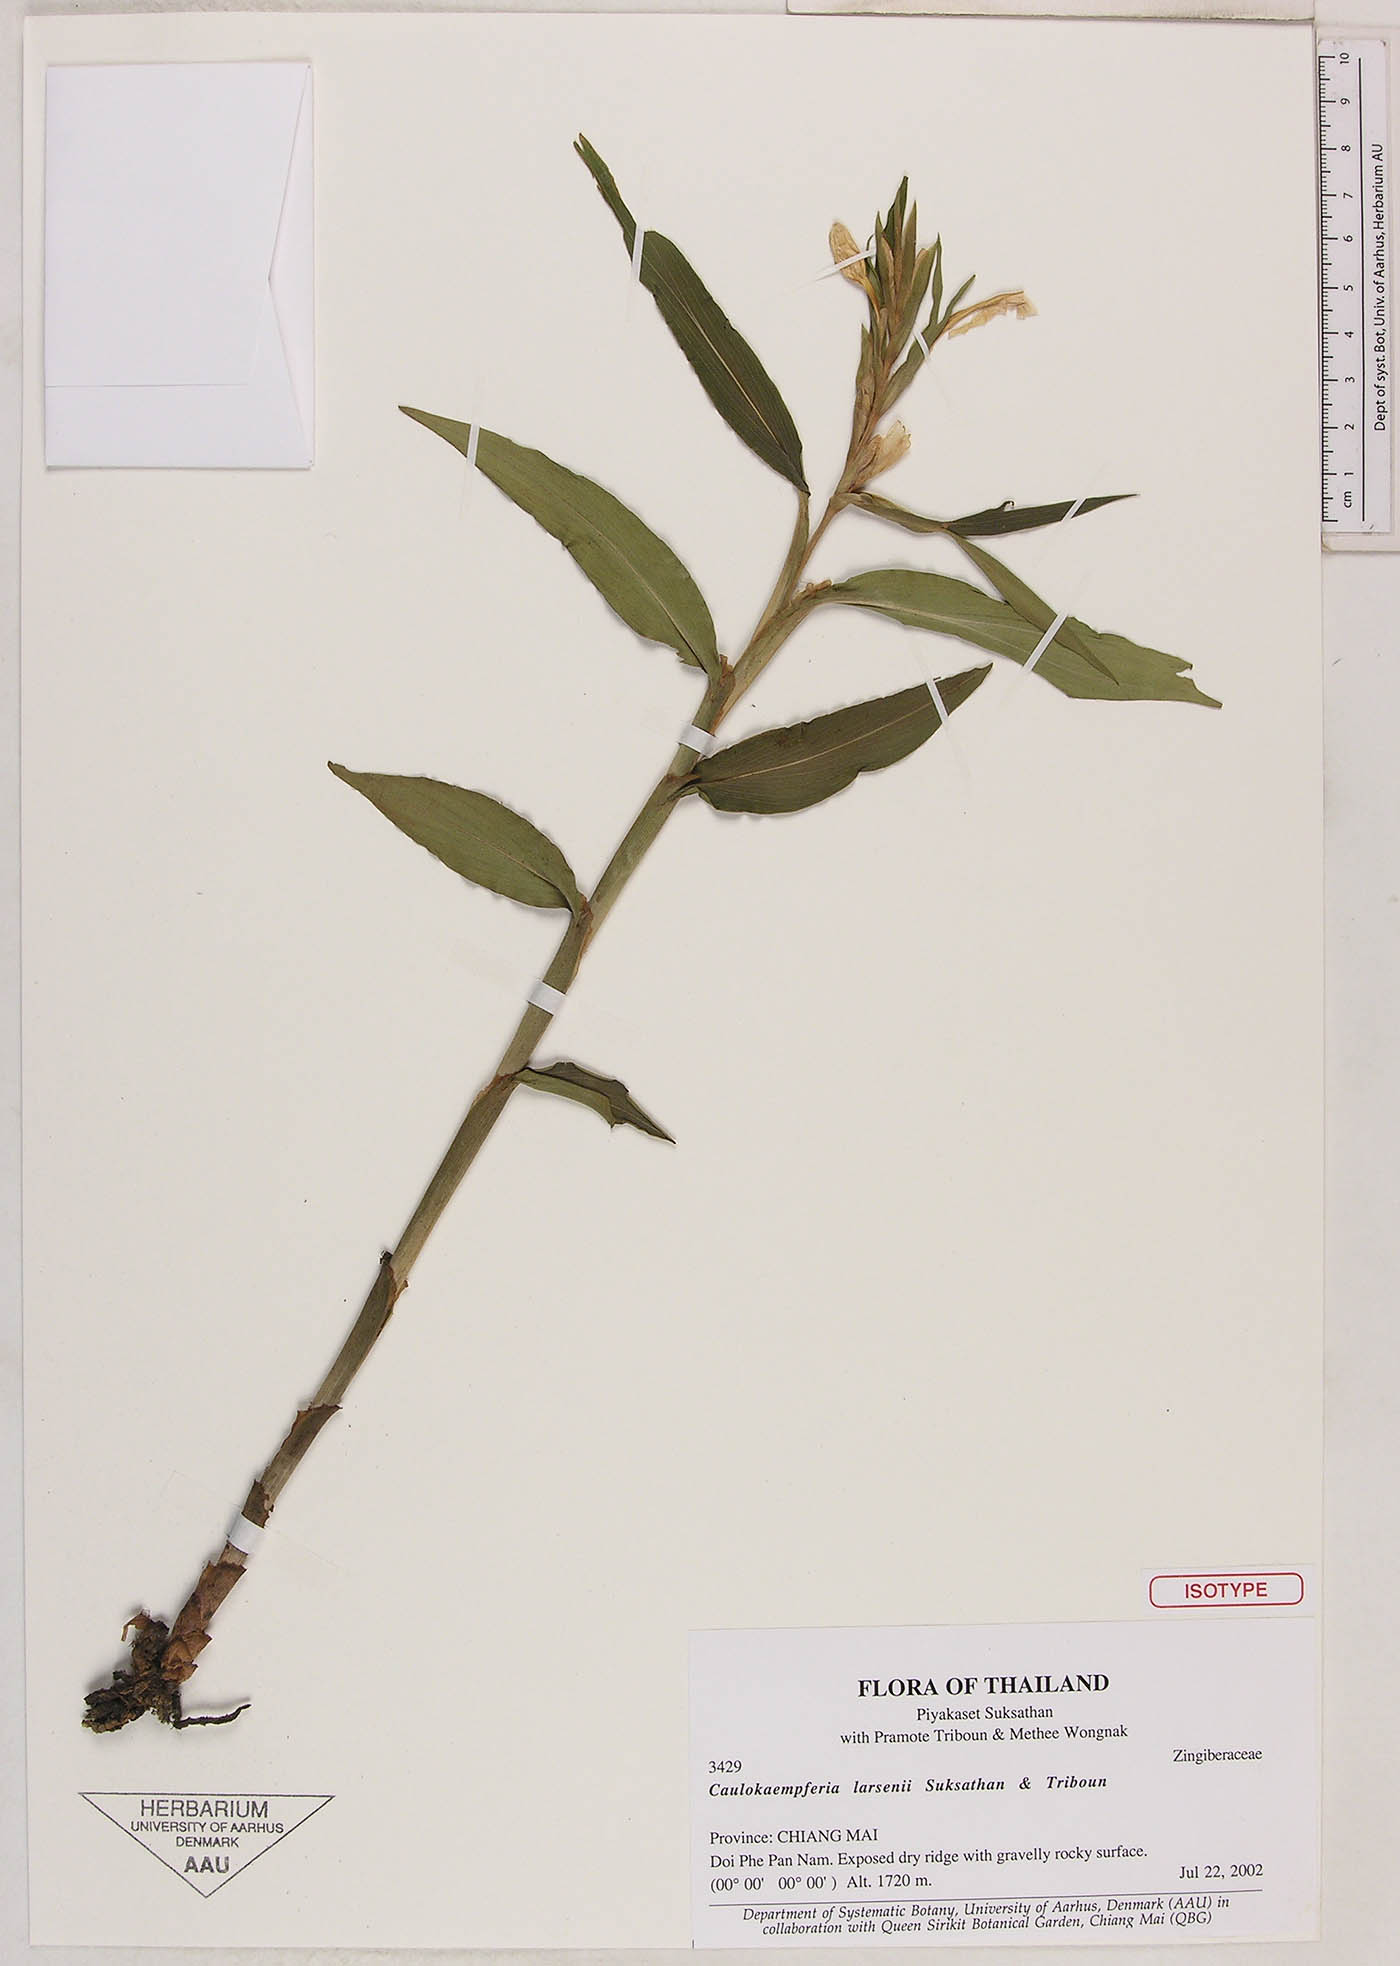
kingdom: Plantae
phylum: Tracheophyta
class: Liliopsida
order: Zingiberales
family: Zingiberaceae
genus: Caulokaempferia
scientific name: Caulokaempferia larsenii
